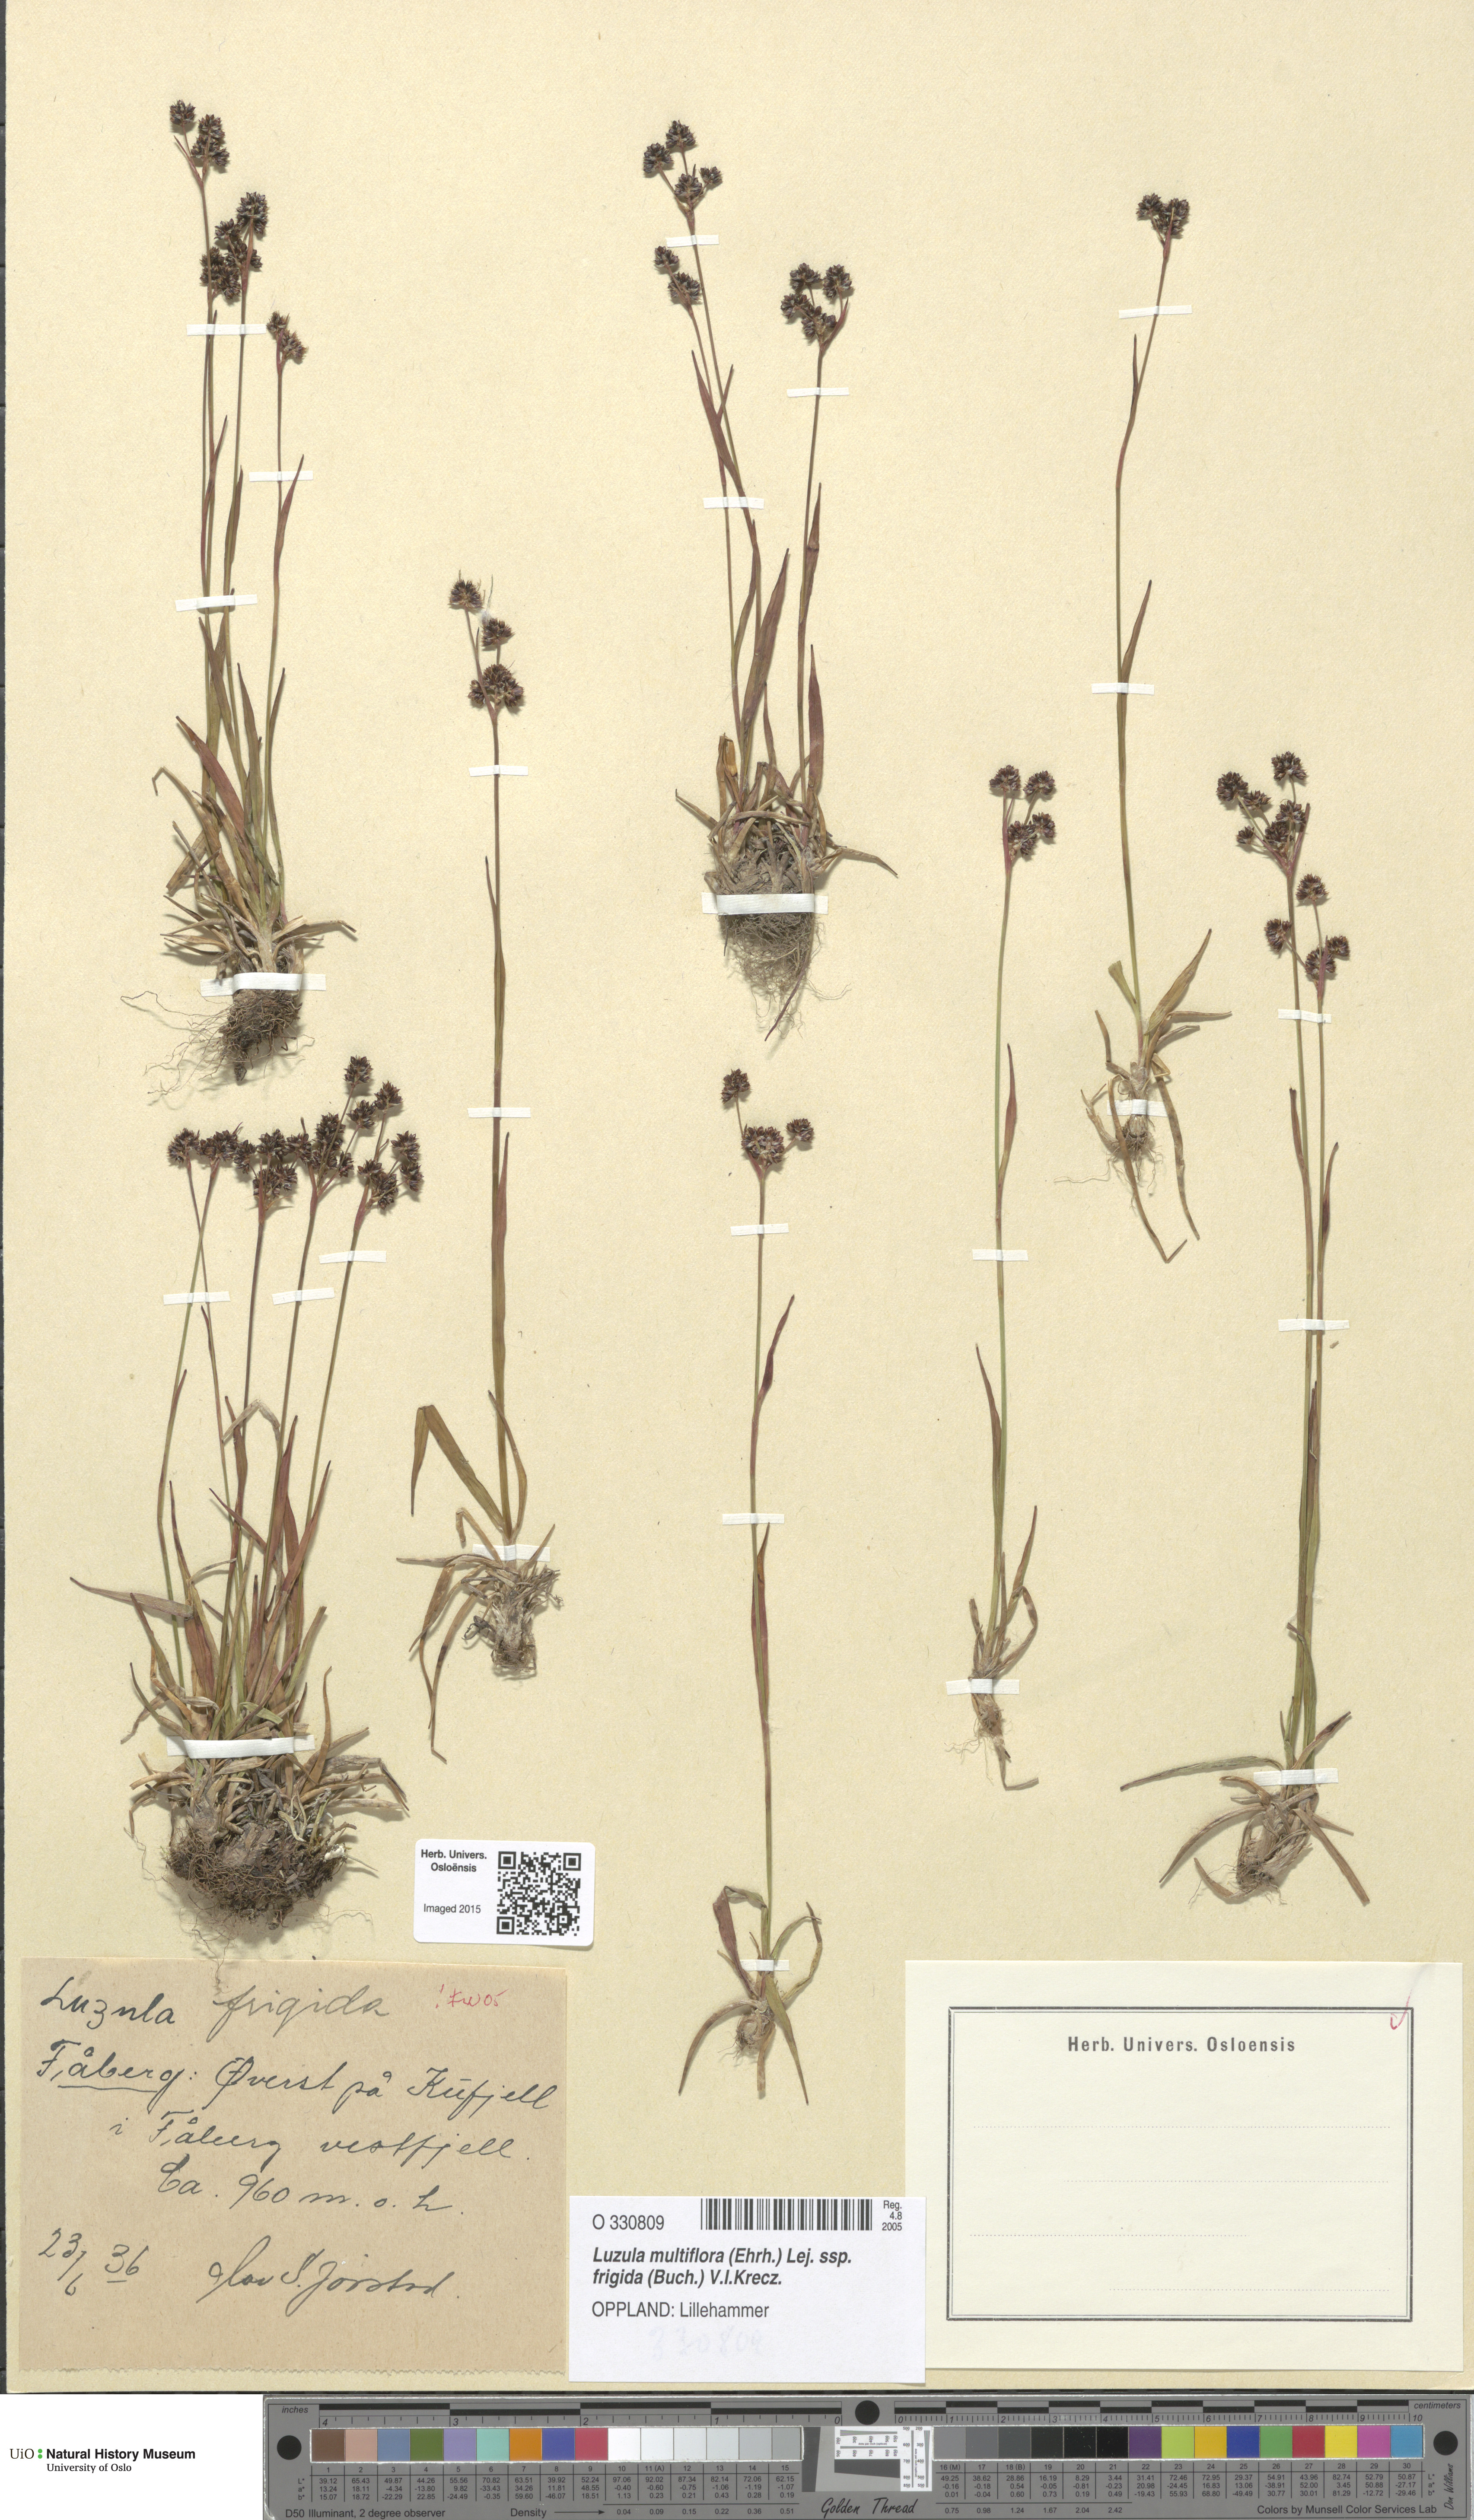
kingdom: Plantae
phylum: Tracheophyta
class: Liliopsida
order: Poales
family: Juncaceae
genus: Luzula
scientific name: Luzula multiflora
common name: Heath wood-rush
